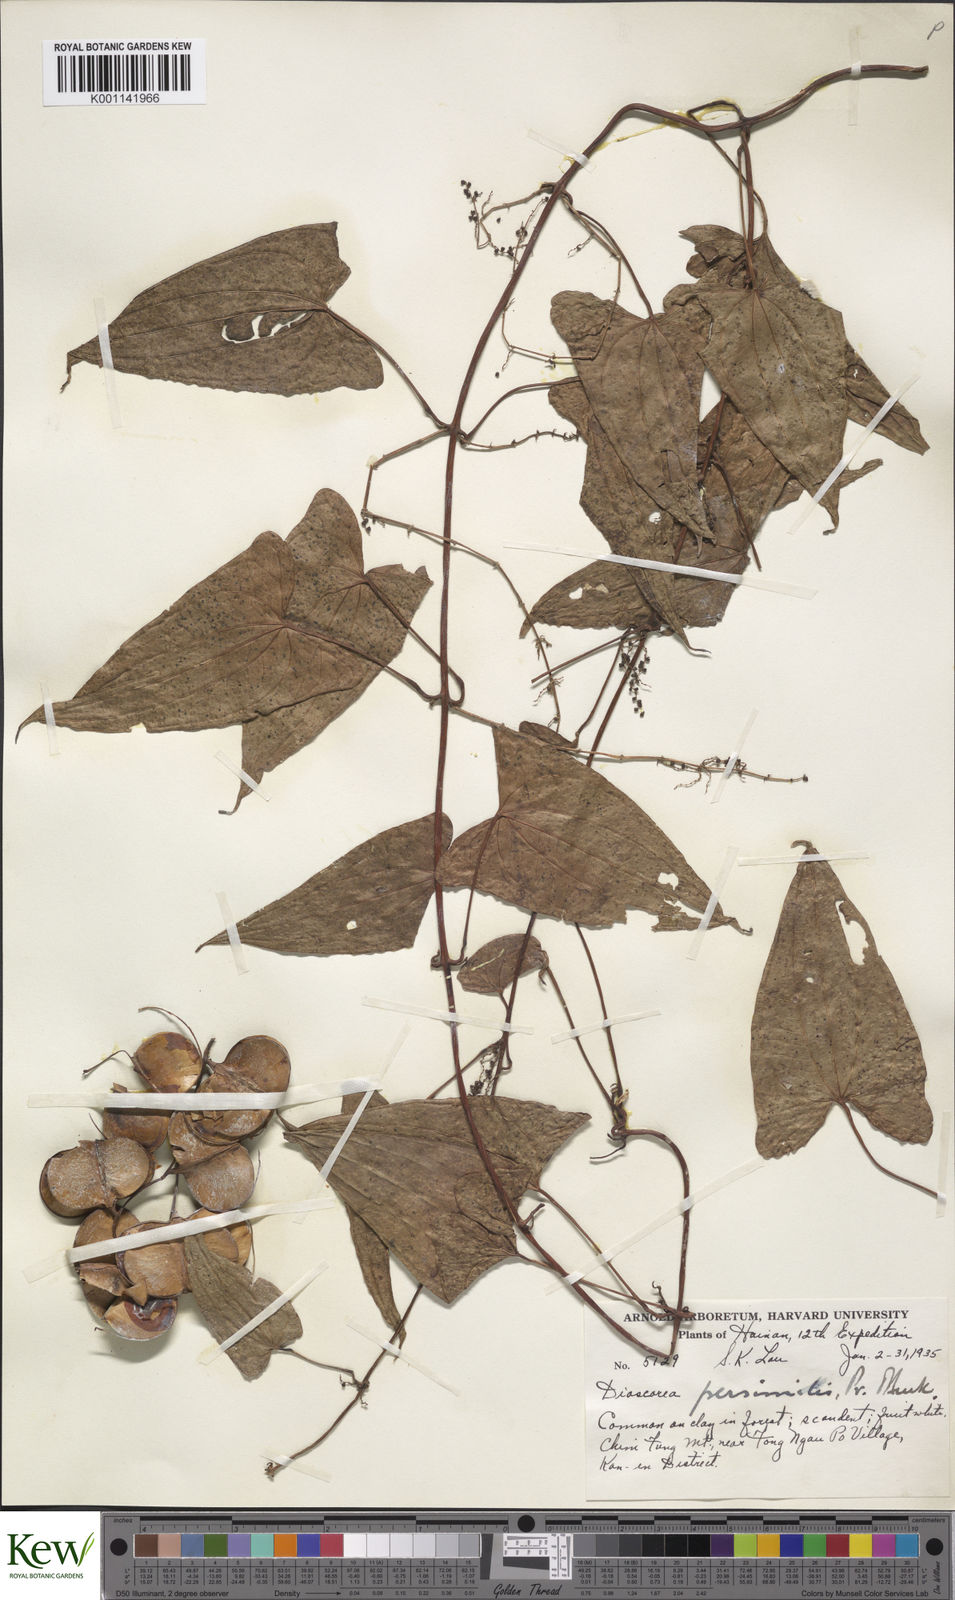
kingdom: Plantae
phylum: Tracheophyta
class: Liliopsida
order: Dioscoreales
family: Dioscoreaceae
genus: Dioscorea
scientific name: Dioscorea hamiltonii
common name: Mountain yam
